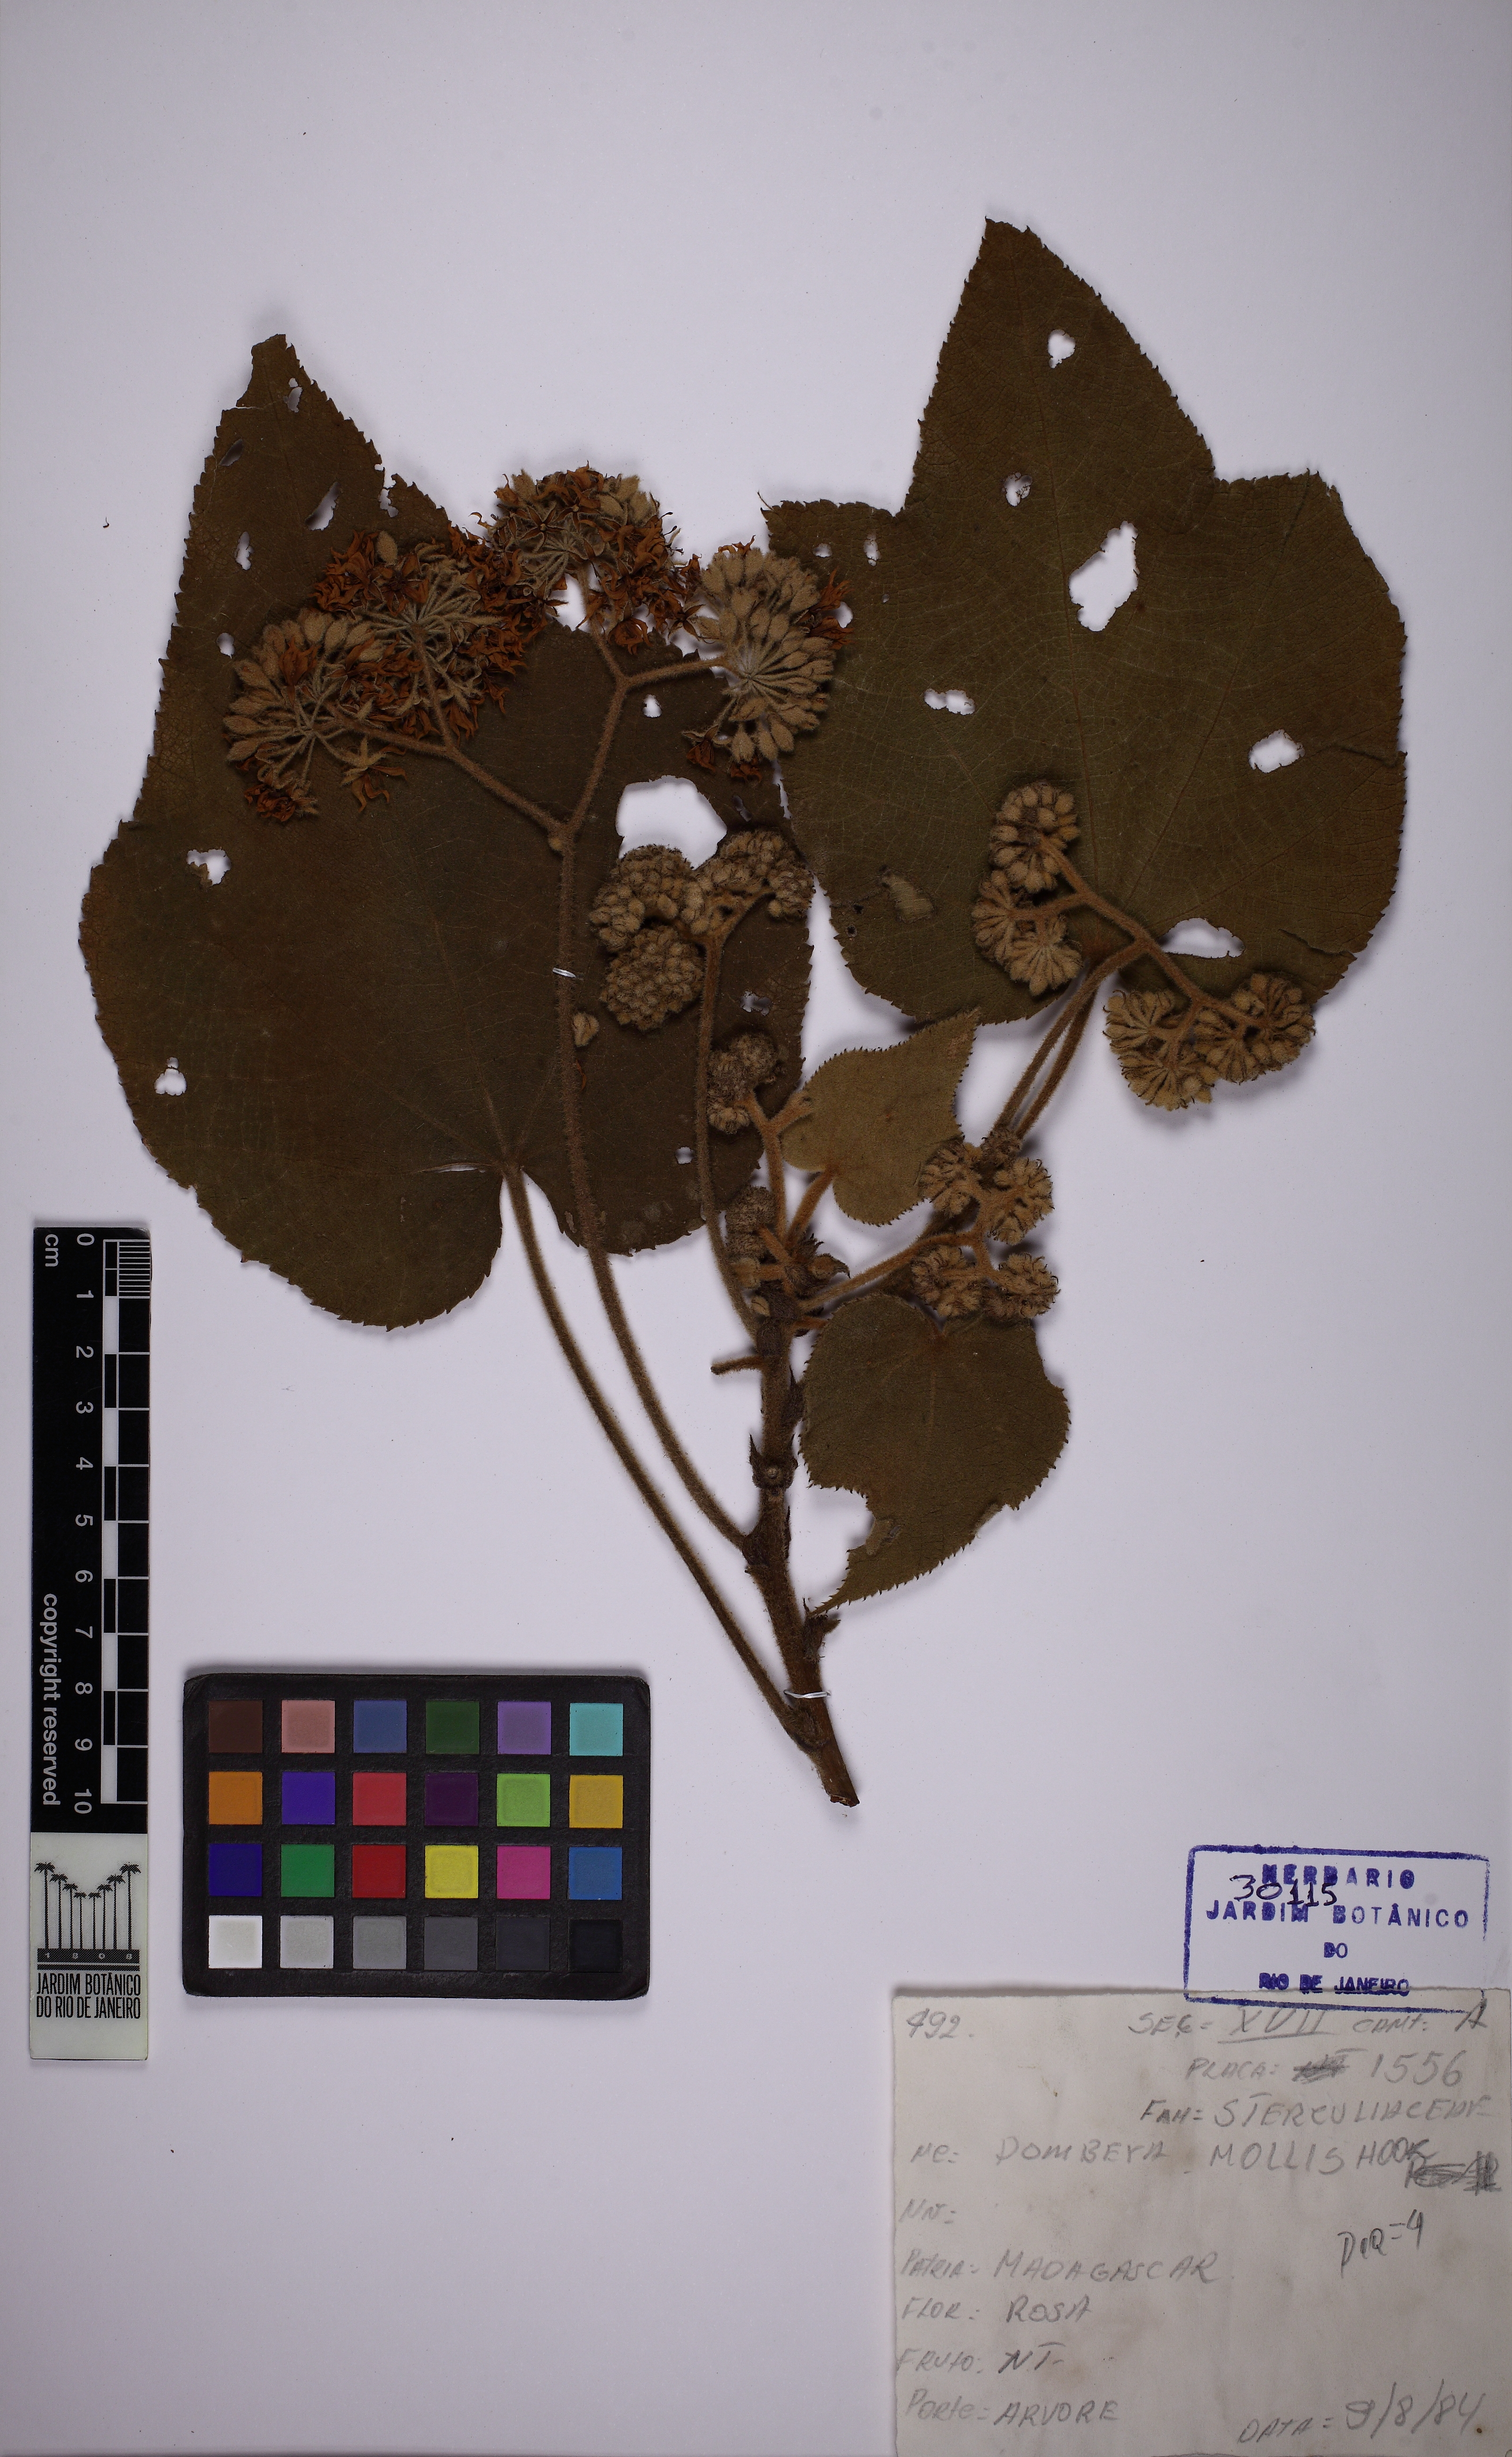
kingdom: Plantae
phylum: Tracheophyta
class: Magnoliopsida
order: Malvales
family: Malvaceae
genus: Dombeya
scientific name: Dombeya mollis
